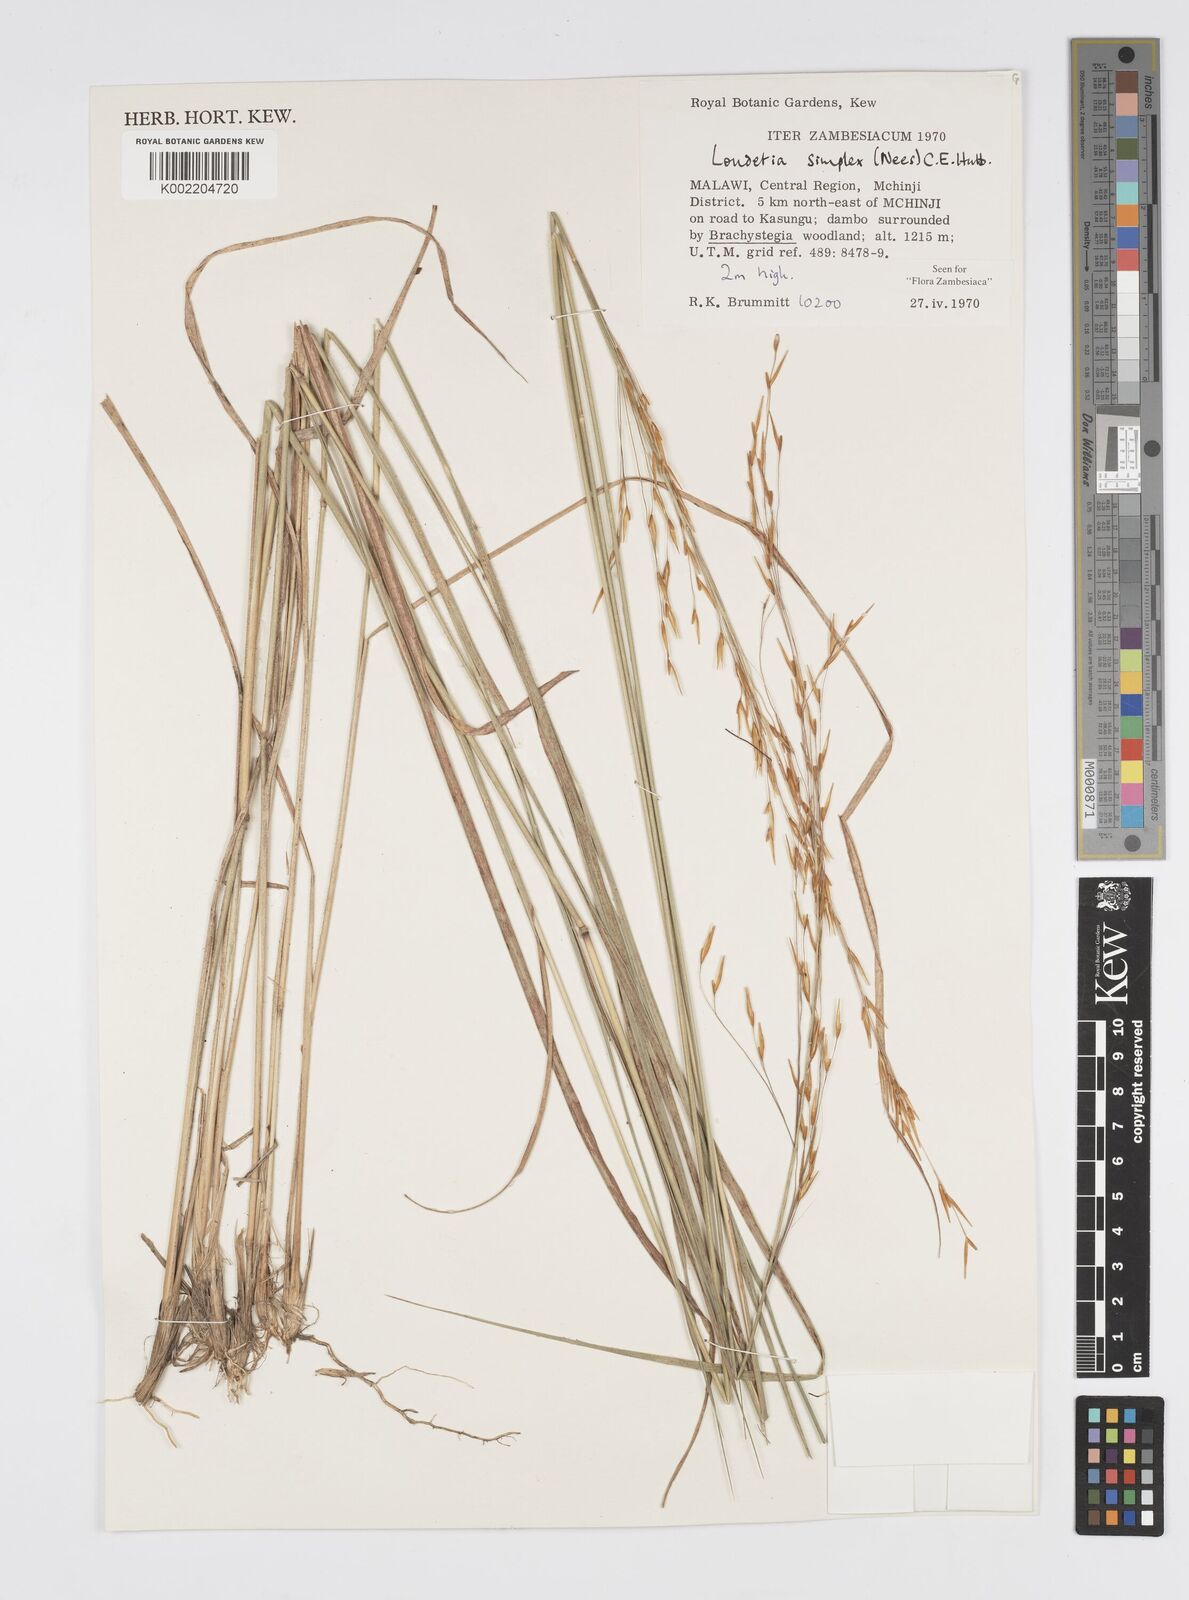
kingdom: Plantae
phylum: Tracheophyta
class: Liliopsida
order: Poales
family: Poaceae
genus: Loudetia
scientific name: Loudetia simplex
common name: Common russet grass
